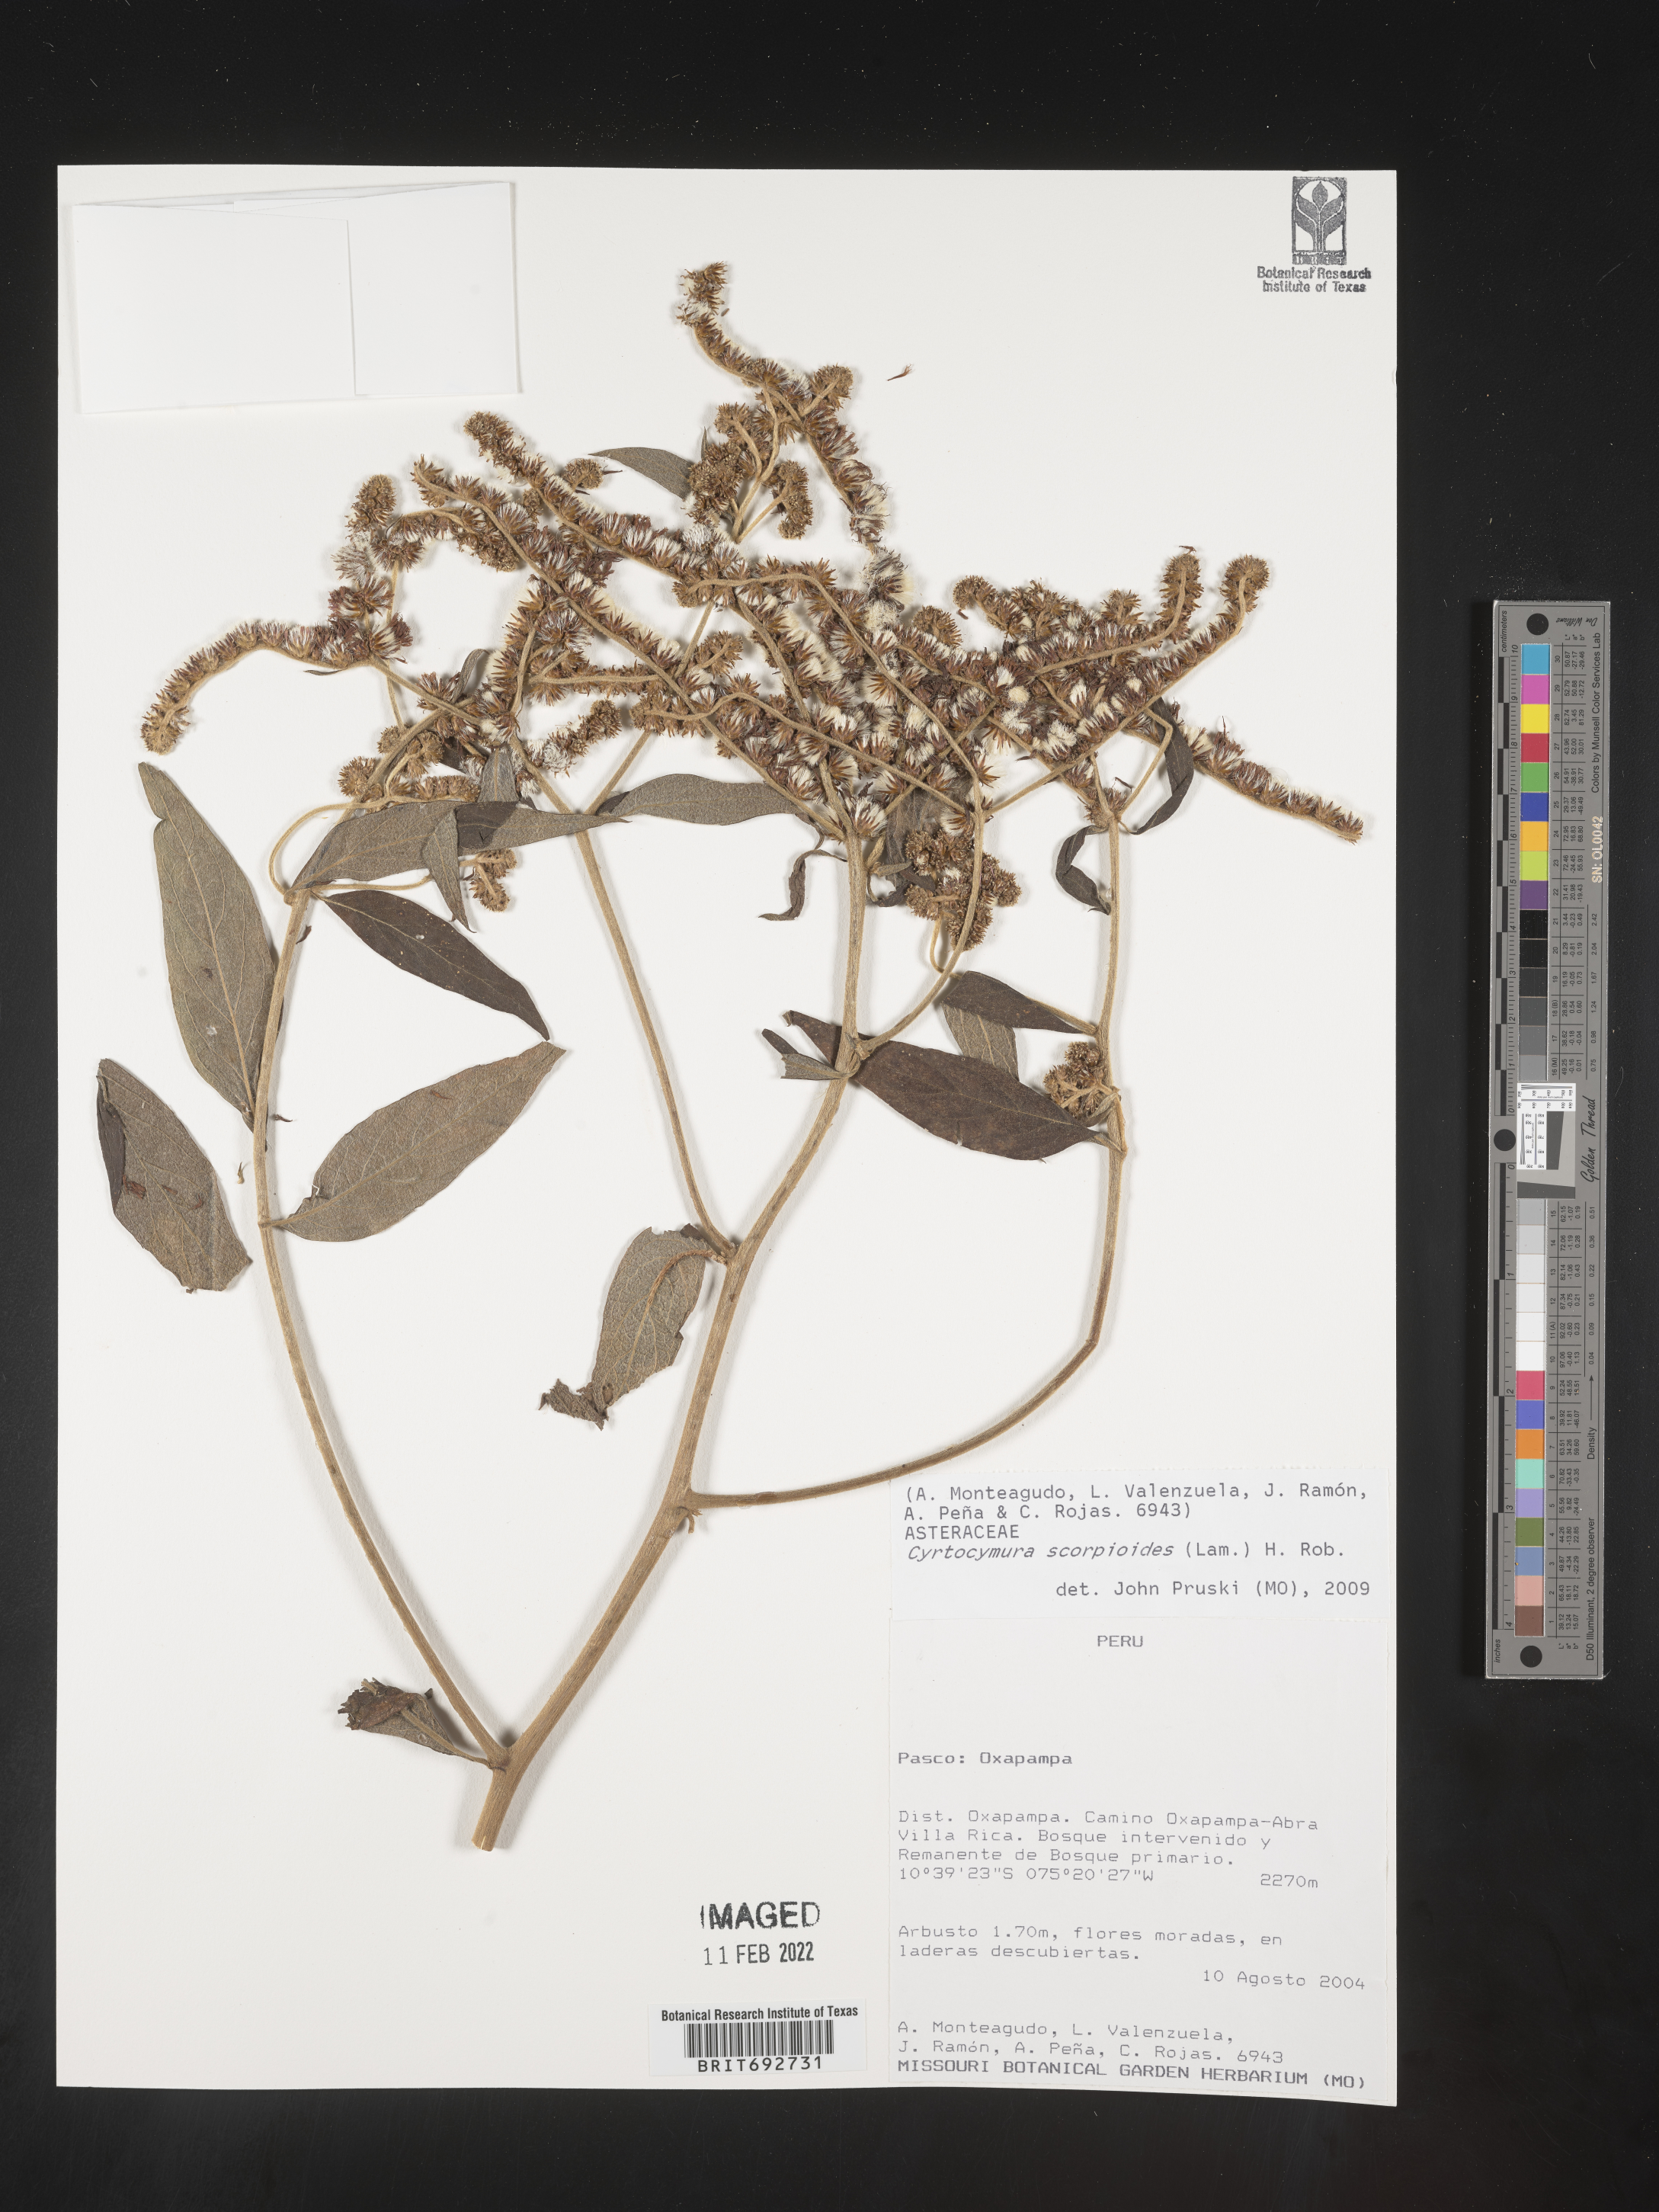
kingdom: Plantae
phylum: Tracheophyta
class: Magnoliopsida
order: Asterales
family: Asteraceae
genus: Cyrtocymura
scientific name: Cyrtocymura
